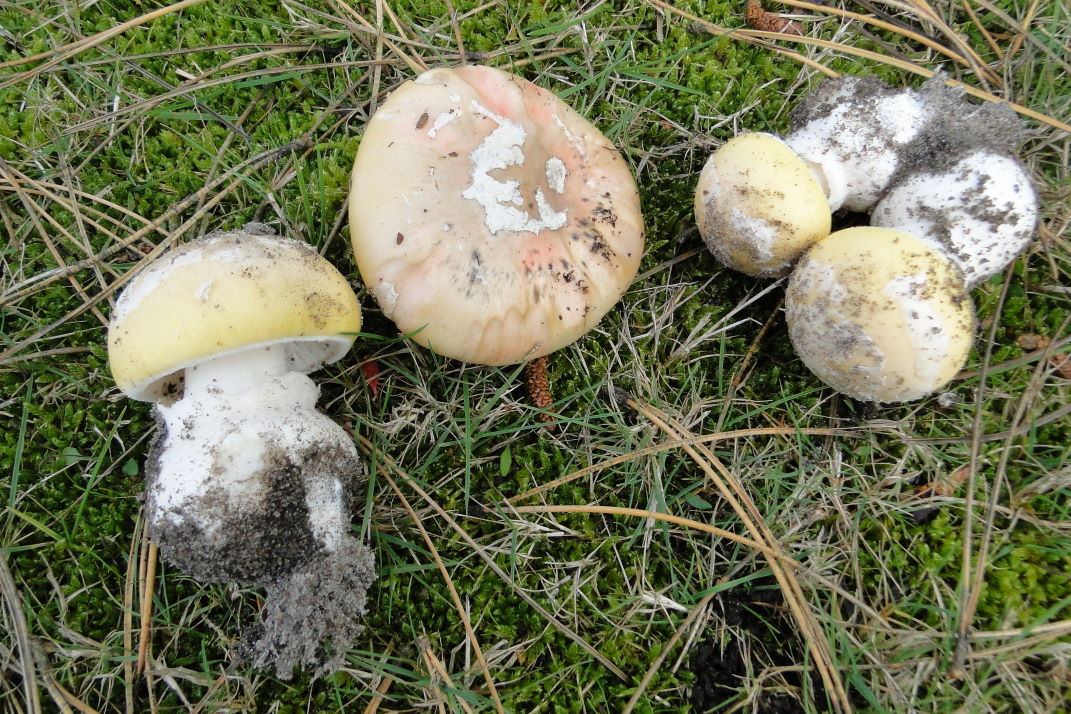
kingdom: Fungi
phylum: Basidiomycota
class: Agaricomycetes
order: Agaricales
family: Amanitaceae
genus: Amanita
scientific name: Amanita gemmata
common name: okkergul fluesvamp
